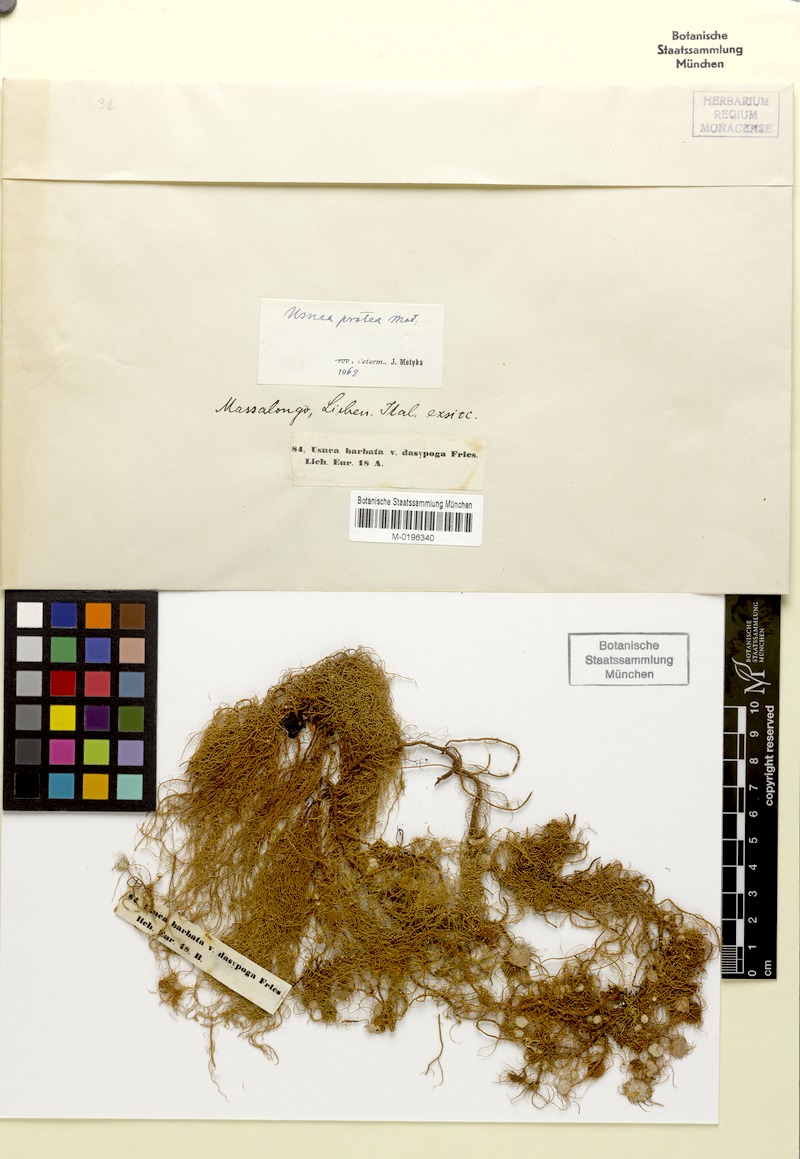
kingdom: Fungi
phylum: Ascomycota
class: Lecanoromycetes
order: Lecanorales
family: Parmeliaceae
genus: Usnea
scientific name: Usnea quasirigida
